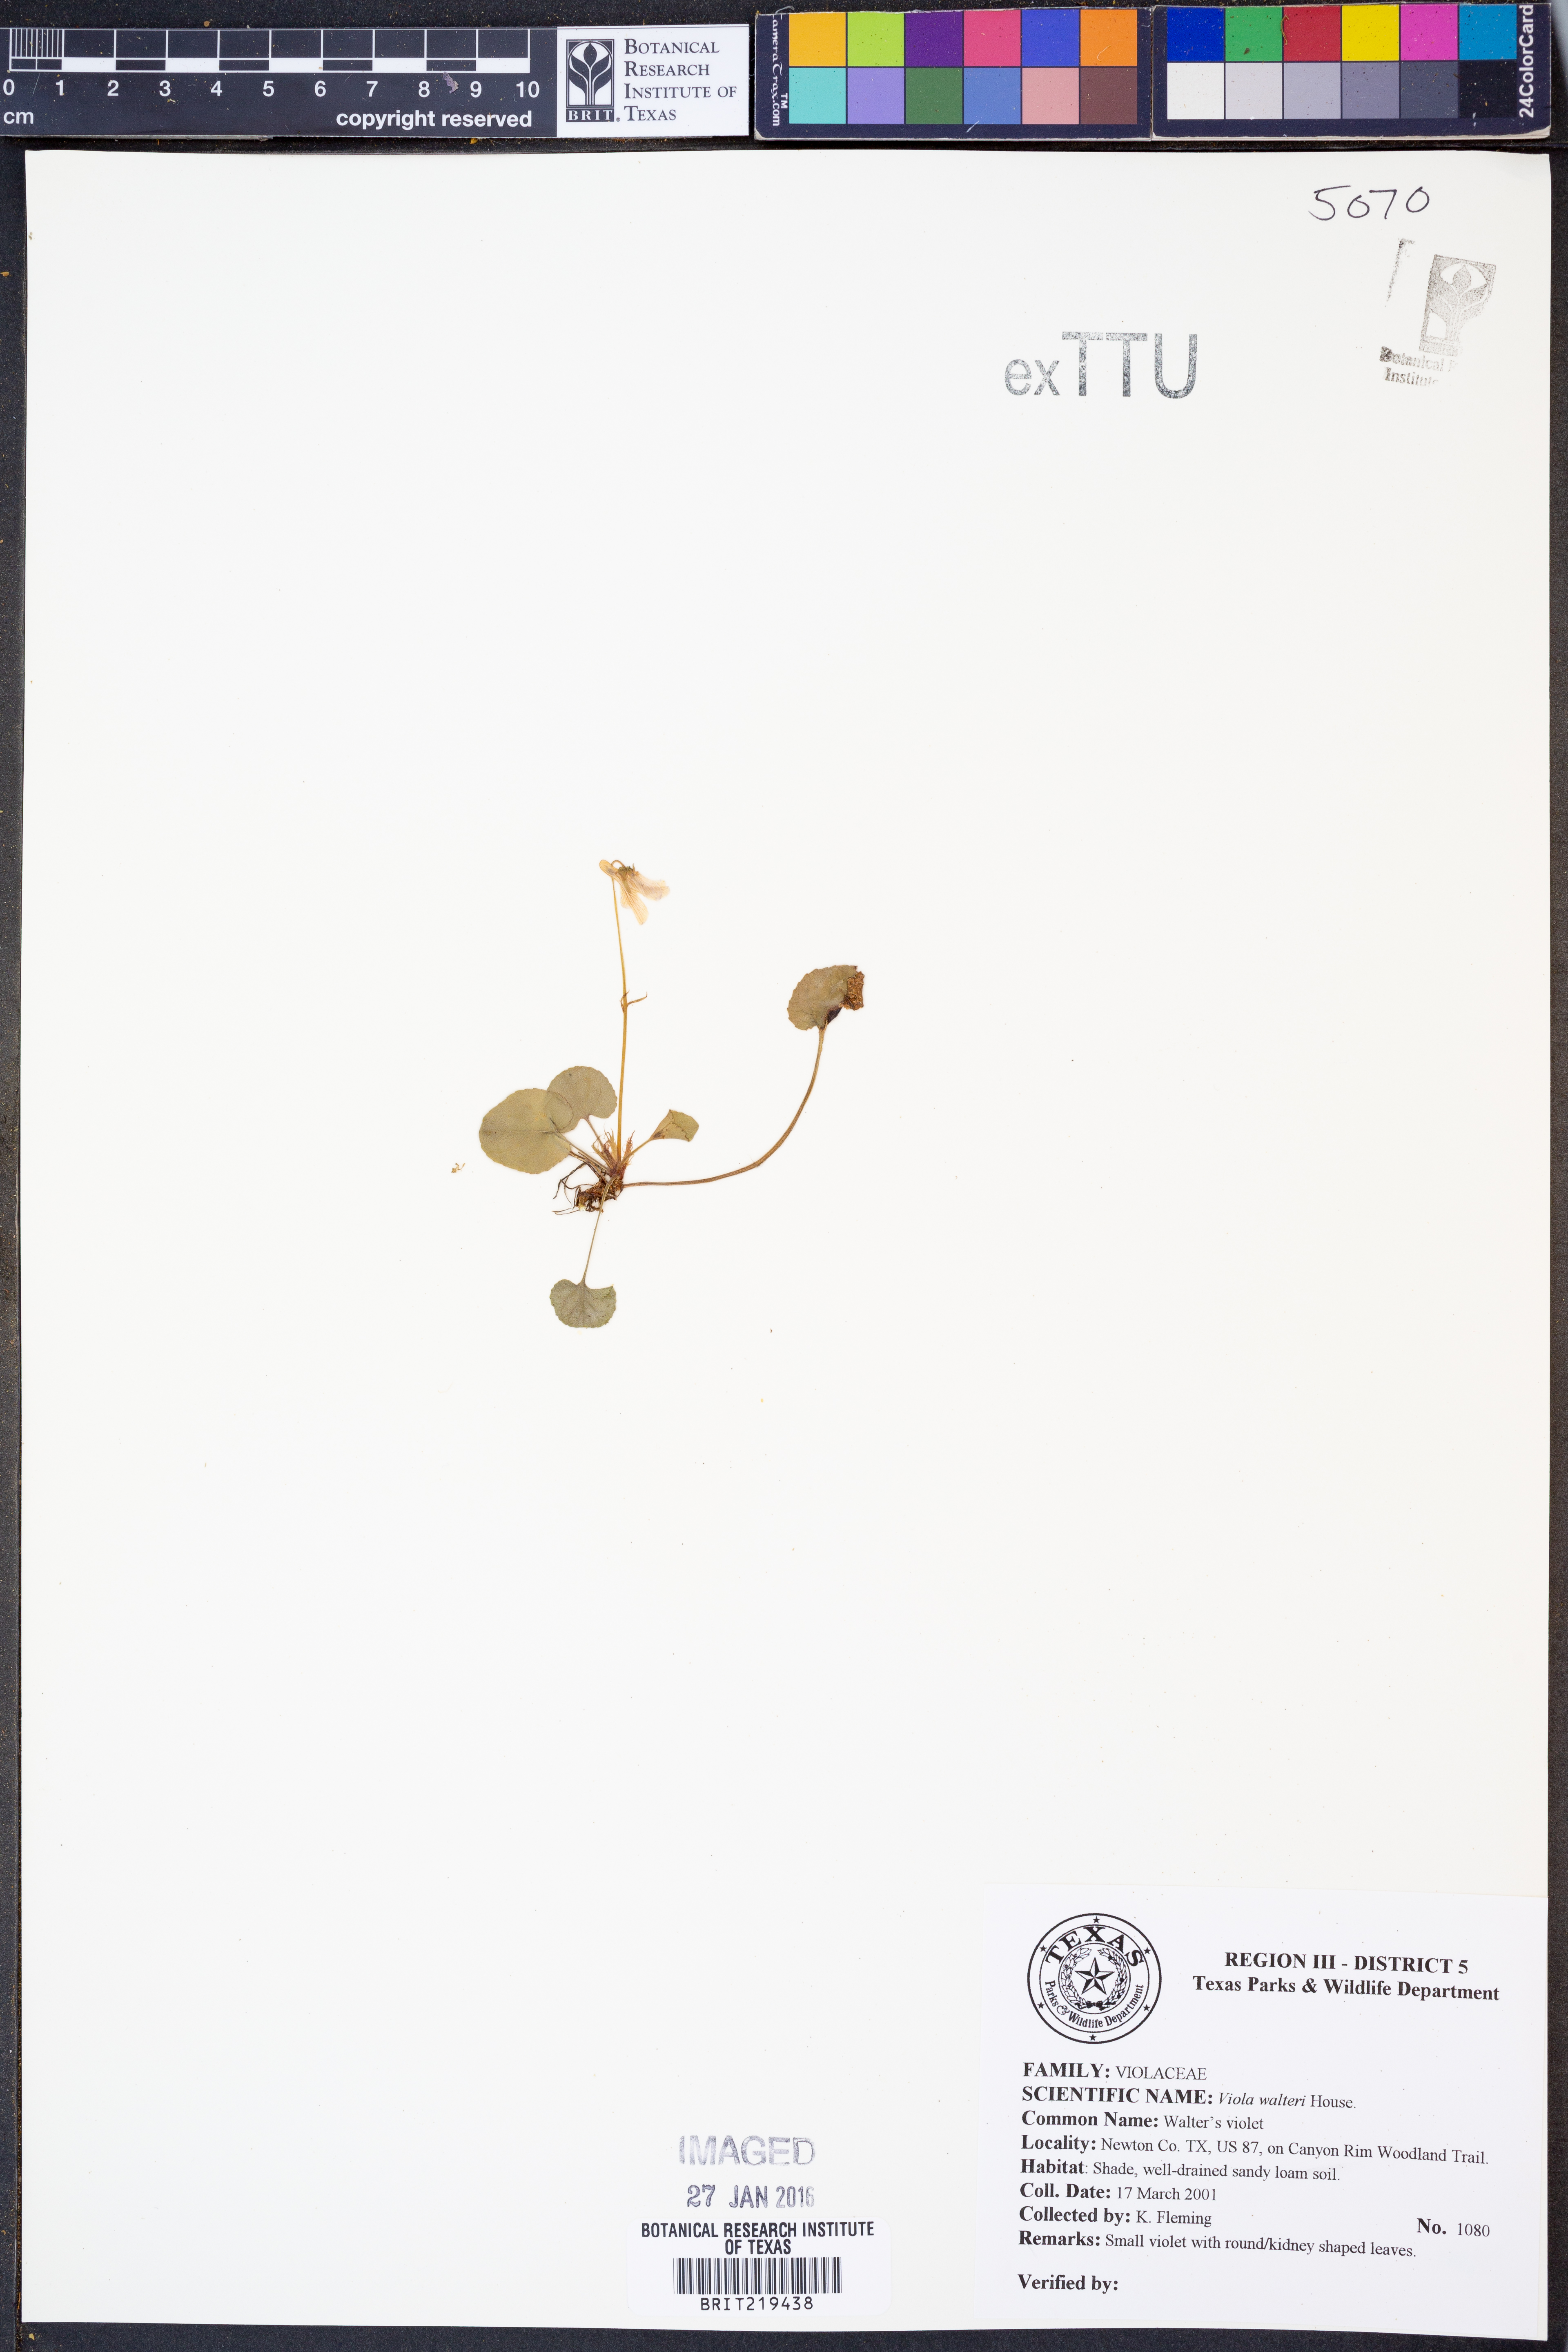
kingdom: Plantae
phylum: Tracheophyta
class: Magnoliopsida
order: Malpighiales
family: Violaceae
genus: Viola
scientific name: Viola walteri
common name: Prostrate southern violet
